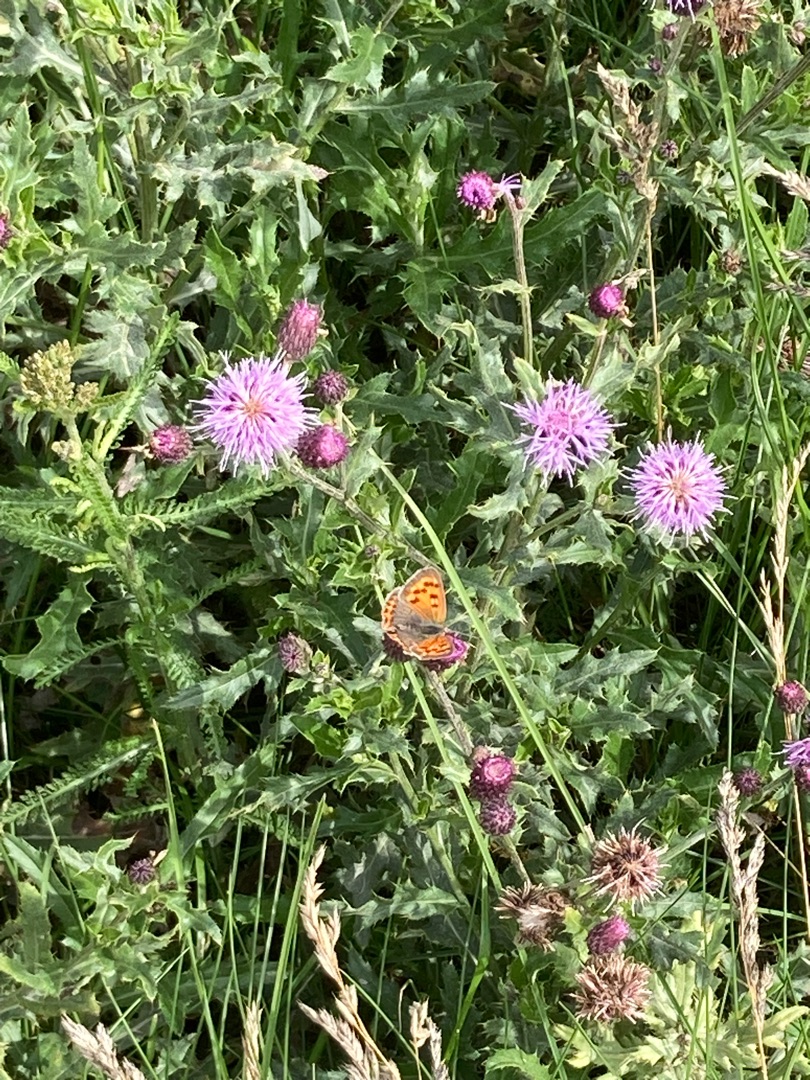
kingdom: Animalia
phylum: Arthropoda
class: Insecta
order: Lepidoptera
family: Lycaenidae
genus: Lycaena
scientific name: Lycaena phlaeas
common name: Lille ildfugl
